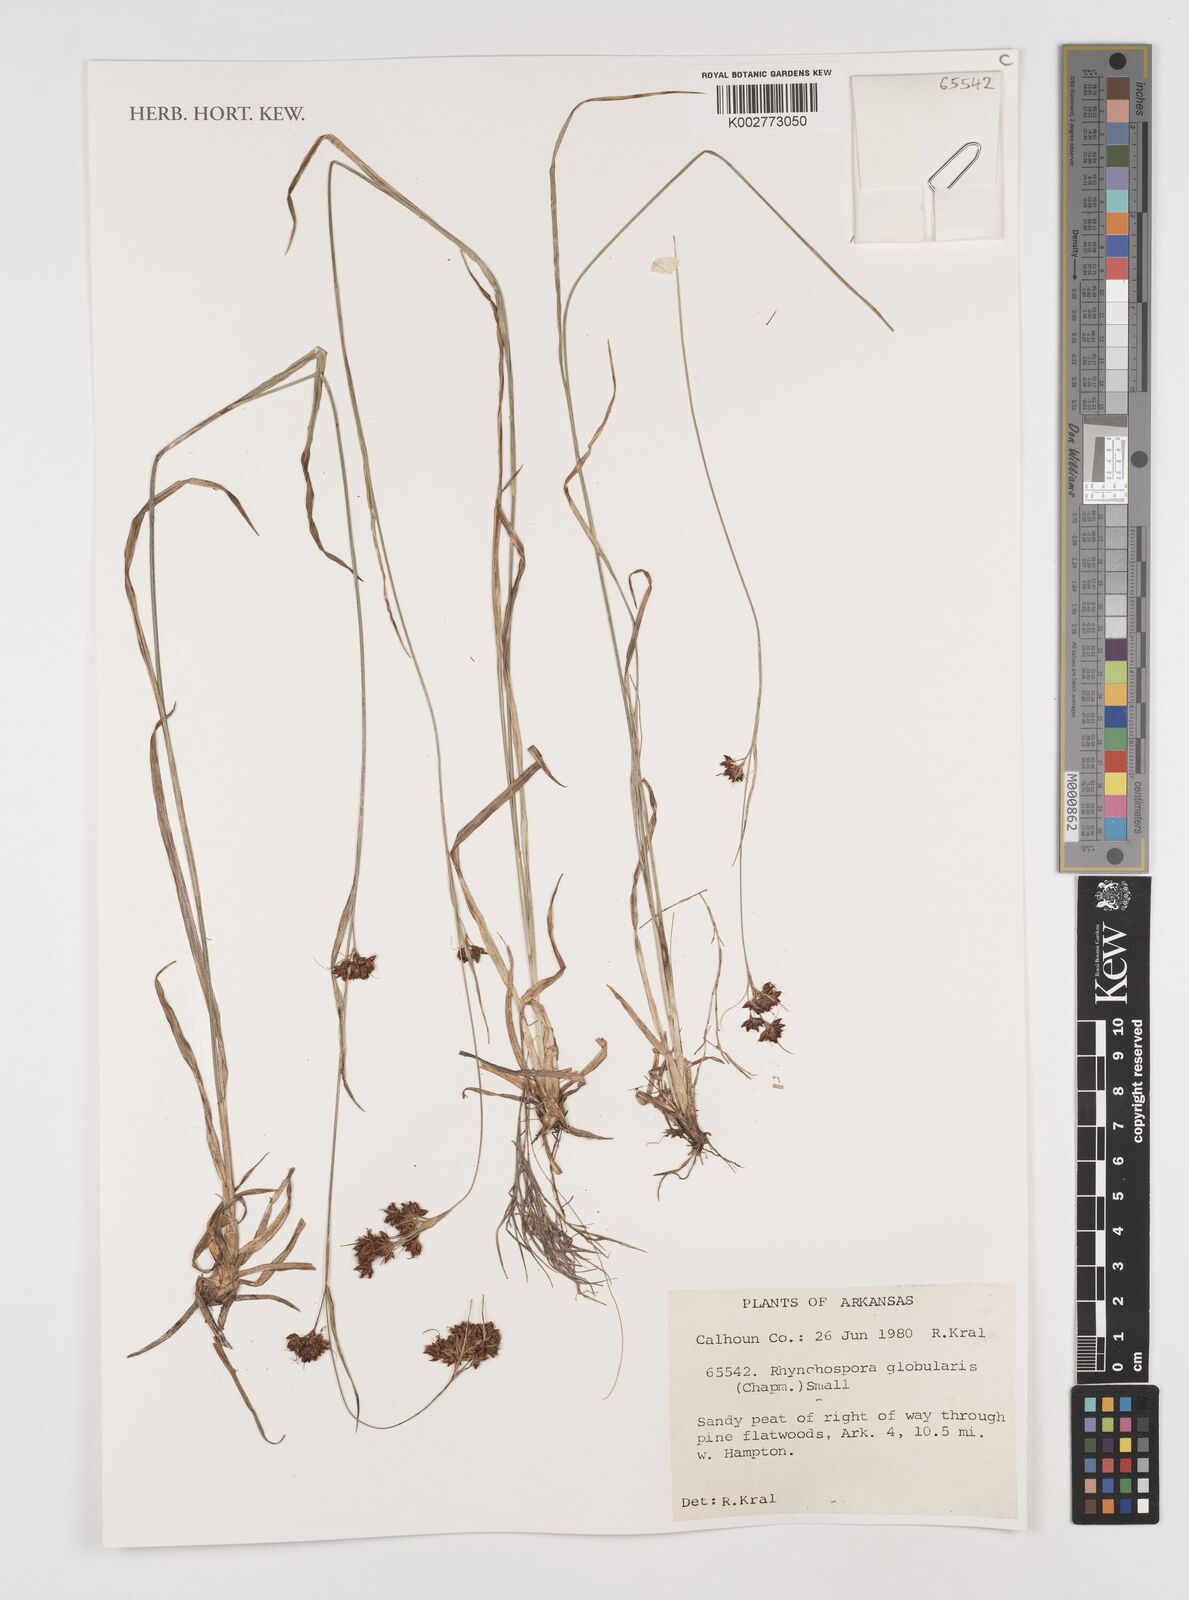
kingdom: Plantae
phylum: Tracheophyta
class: Liliopsida
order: Poales
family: Cyperaceae
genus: Rhynchospora
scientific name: Rhynchospora globularis
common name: Globe beaksedge
